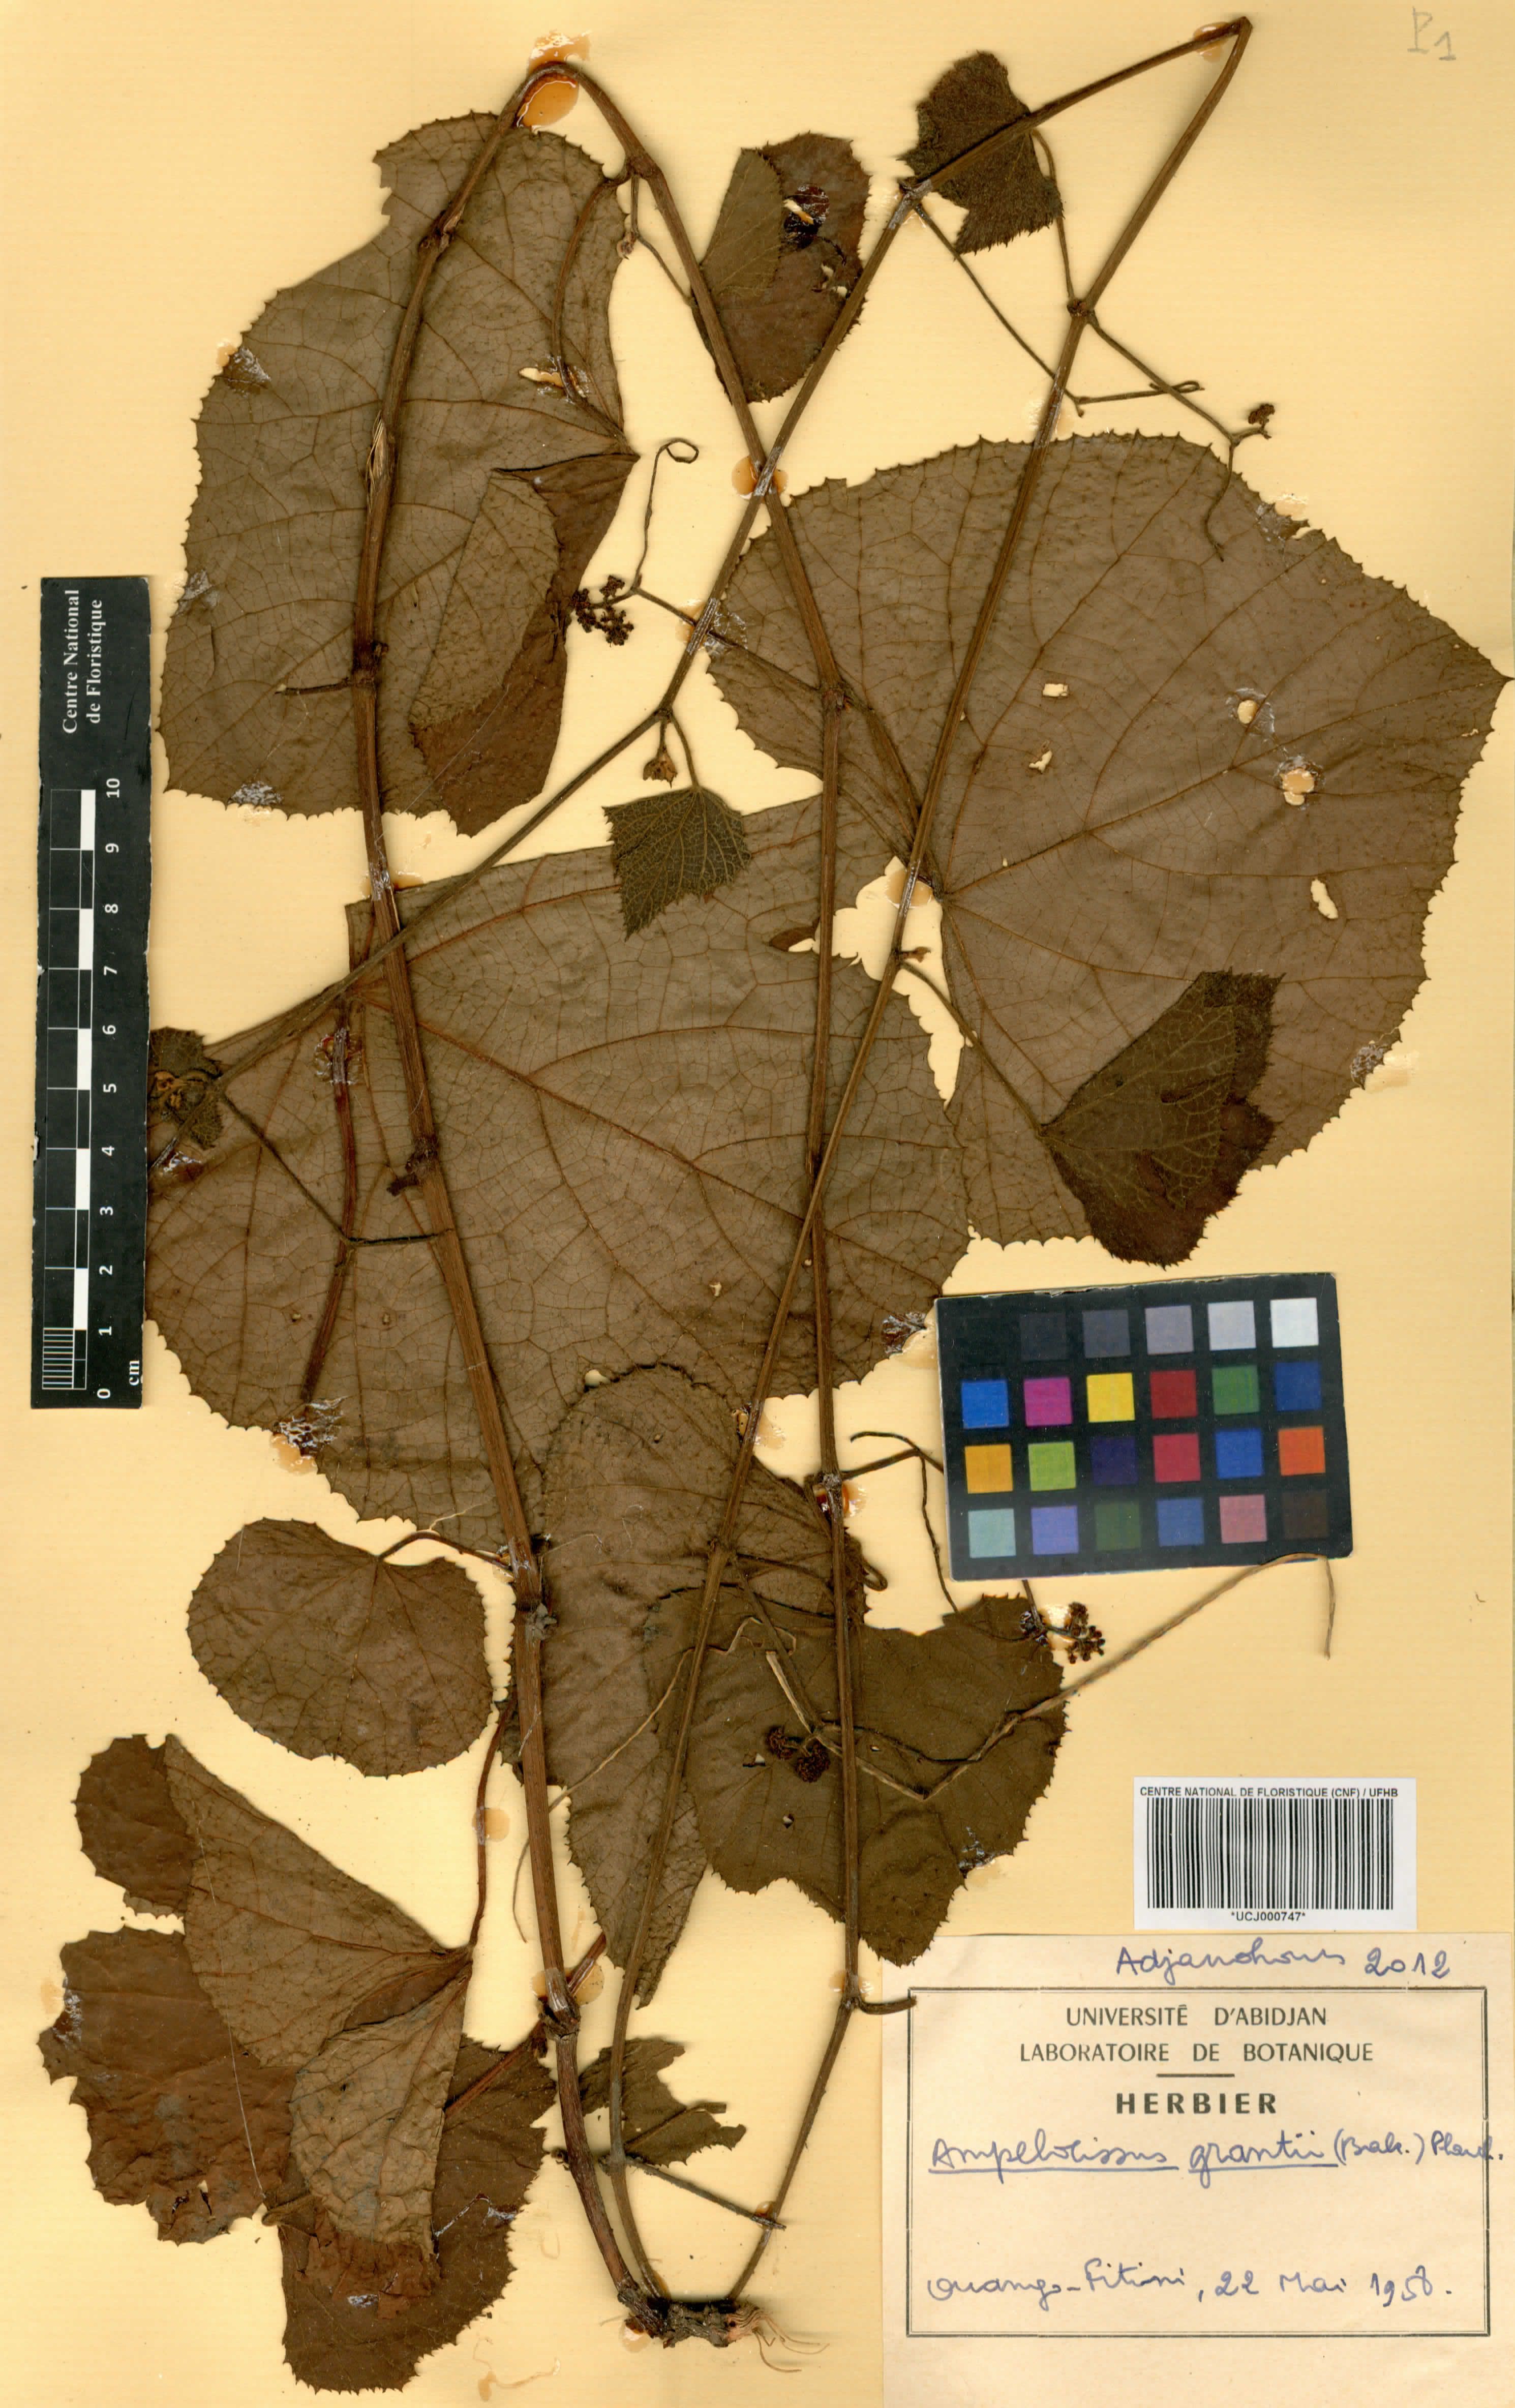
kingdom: Plantae
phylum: Tracheophyta
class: Magnoliopsida
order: Vitales
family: Vitaceae
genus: Ampelocissus
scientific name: Ampelocissus africana
